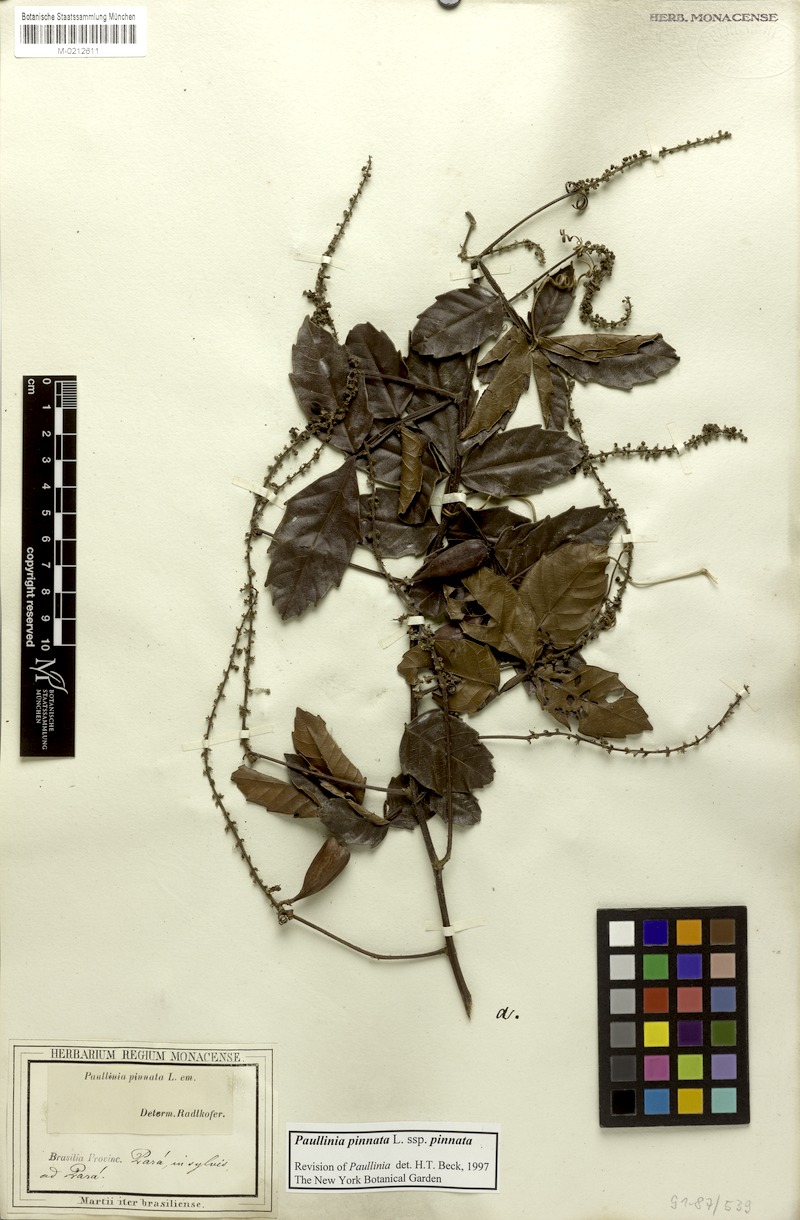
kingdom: Plantae
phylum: Tracheophyta
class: Magnoliopsida
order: Sapindales
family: Sapindaceae
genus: Paullinia
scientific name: Paullinia pinnata
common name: Barbasco
